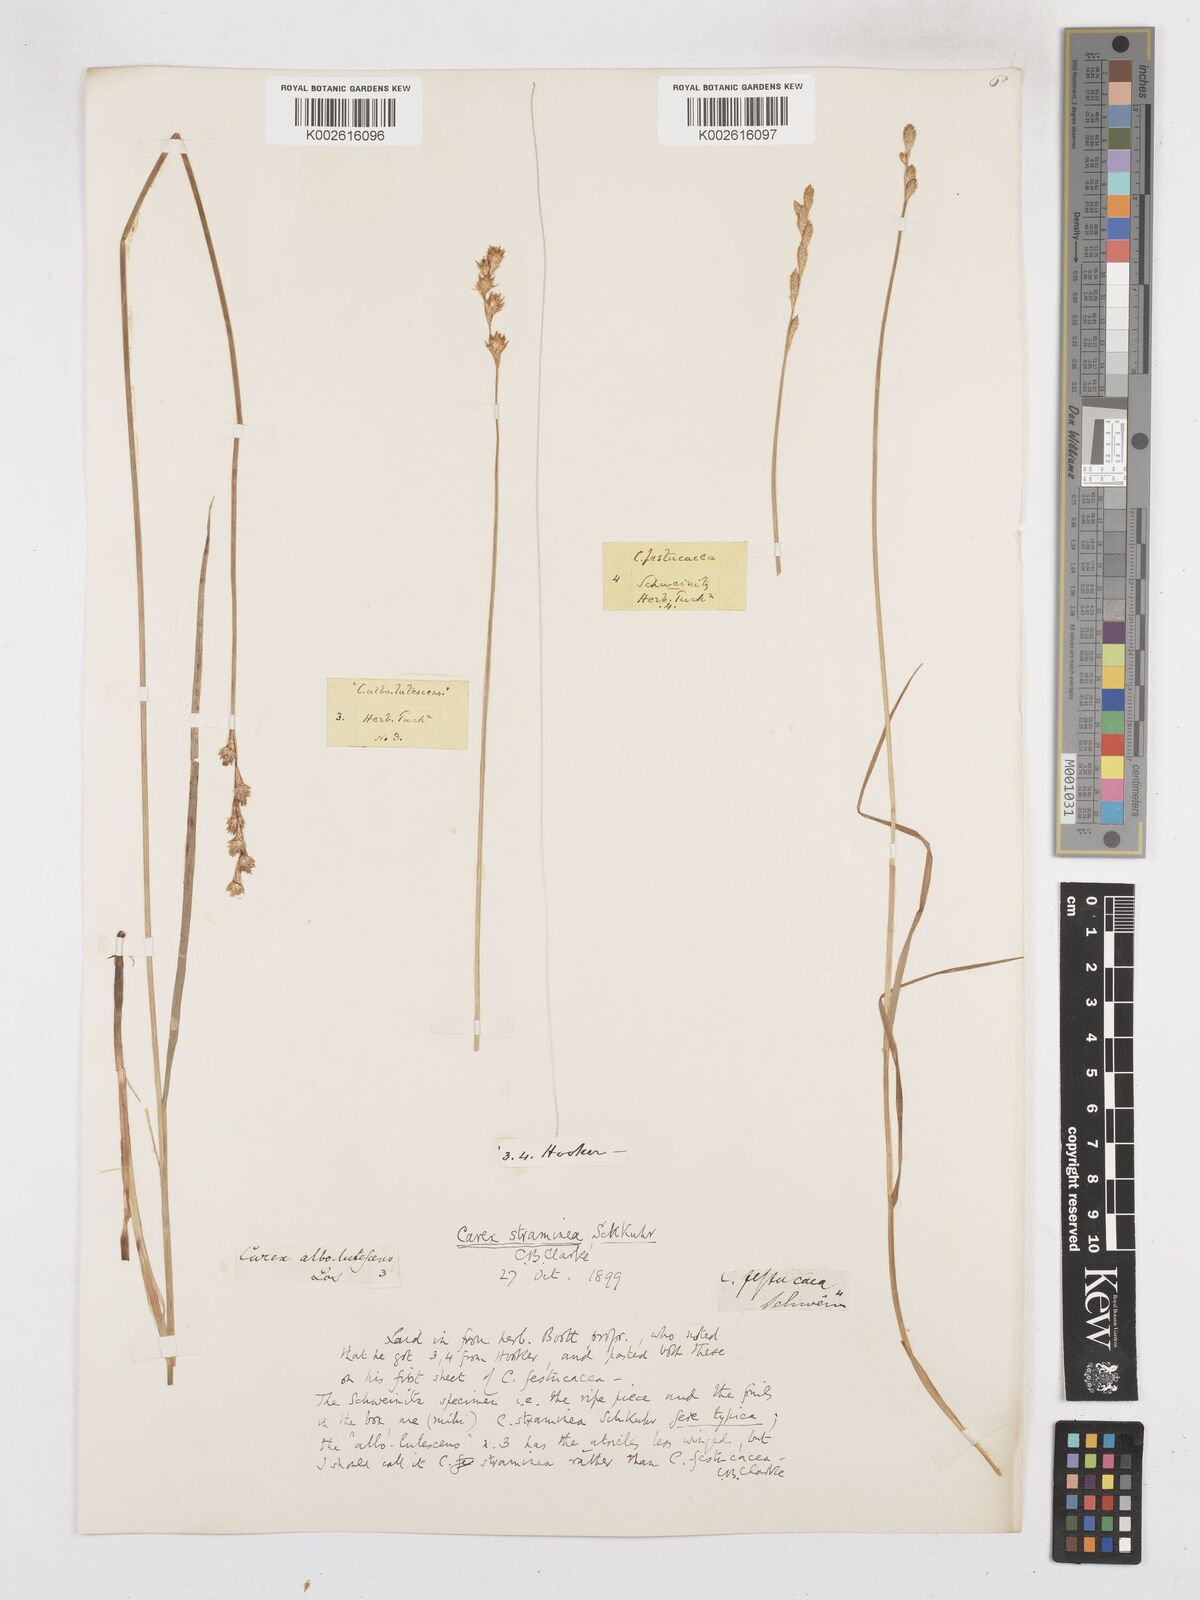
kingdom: Plantae
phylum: Tracheophyta
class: Liliopsida
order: Poales
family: Cyperaceae
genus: Carex
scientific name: Carex brevior
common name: Brevior sedge
